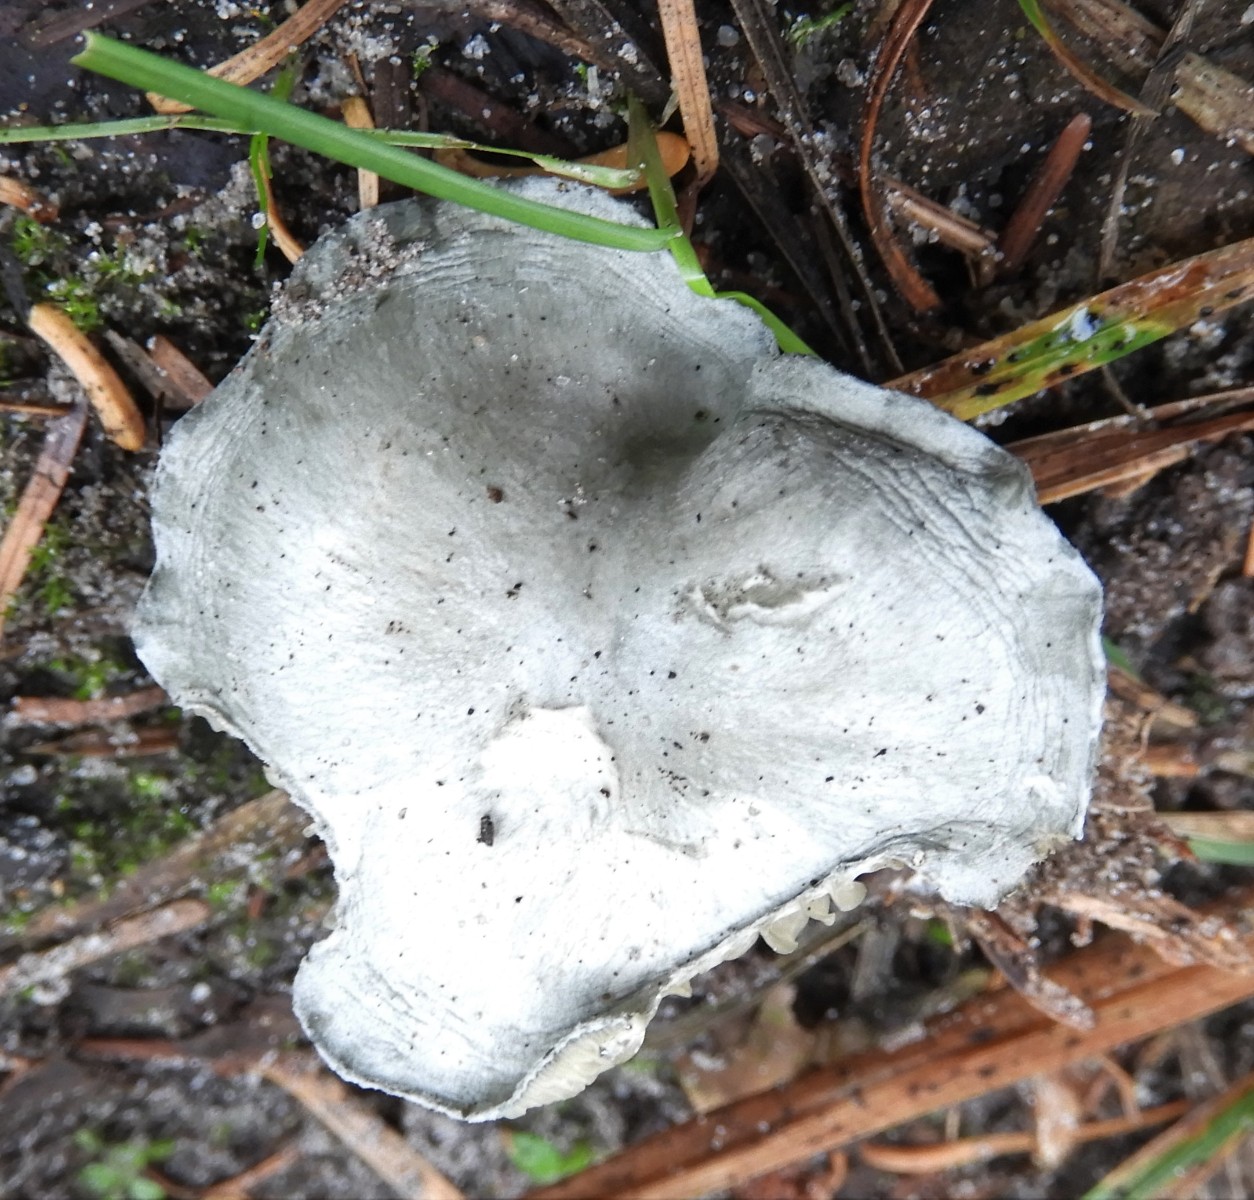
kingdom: Fungi
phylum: Basidiomycota
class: Agaricomycetes
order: Agaricales
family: Tricholomataceae
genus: Clitocybe
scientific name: Clitocybe odora
